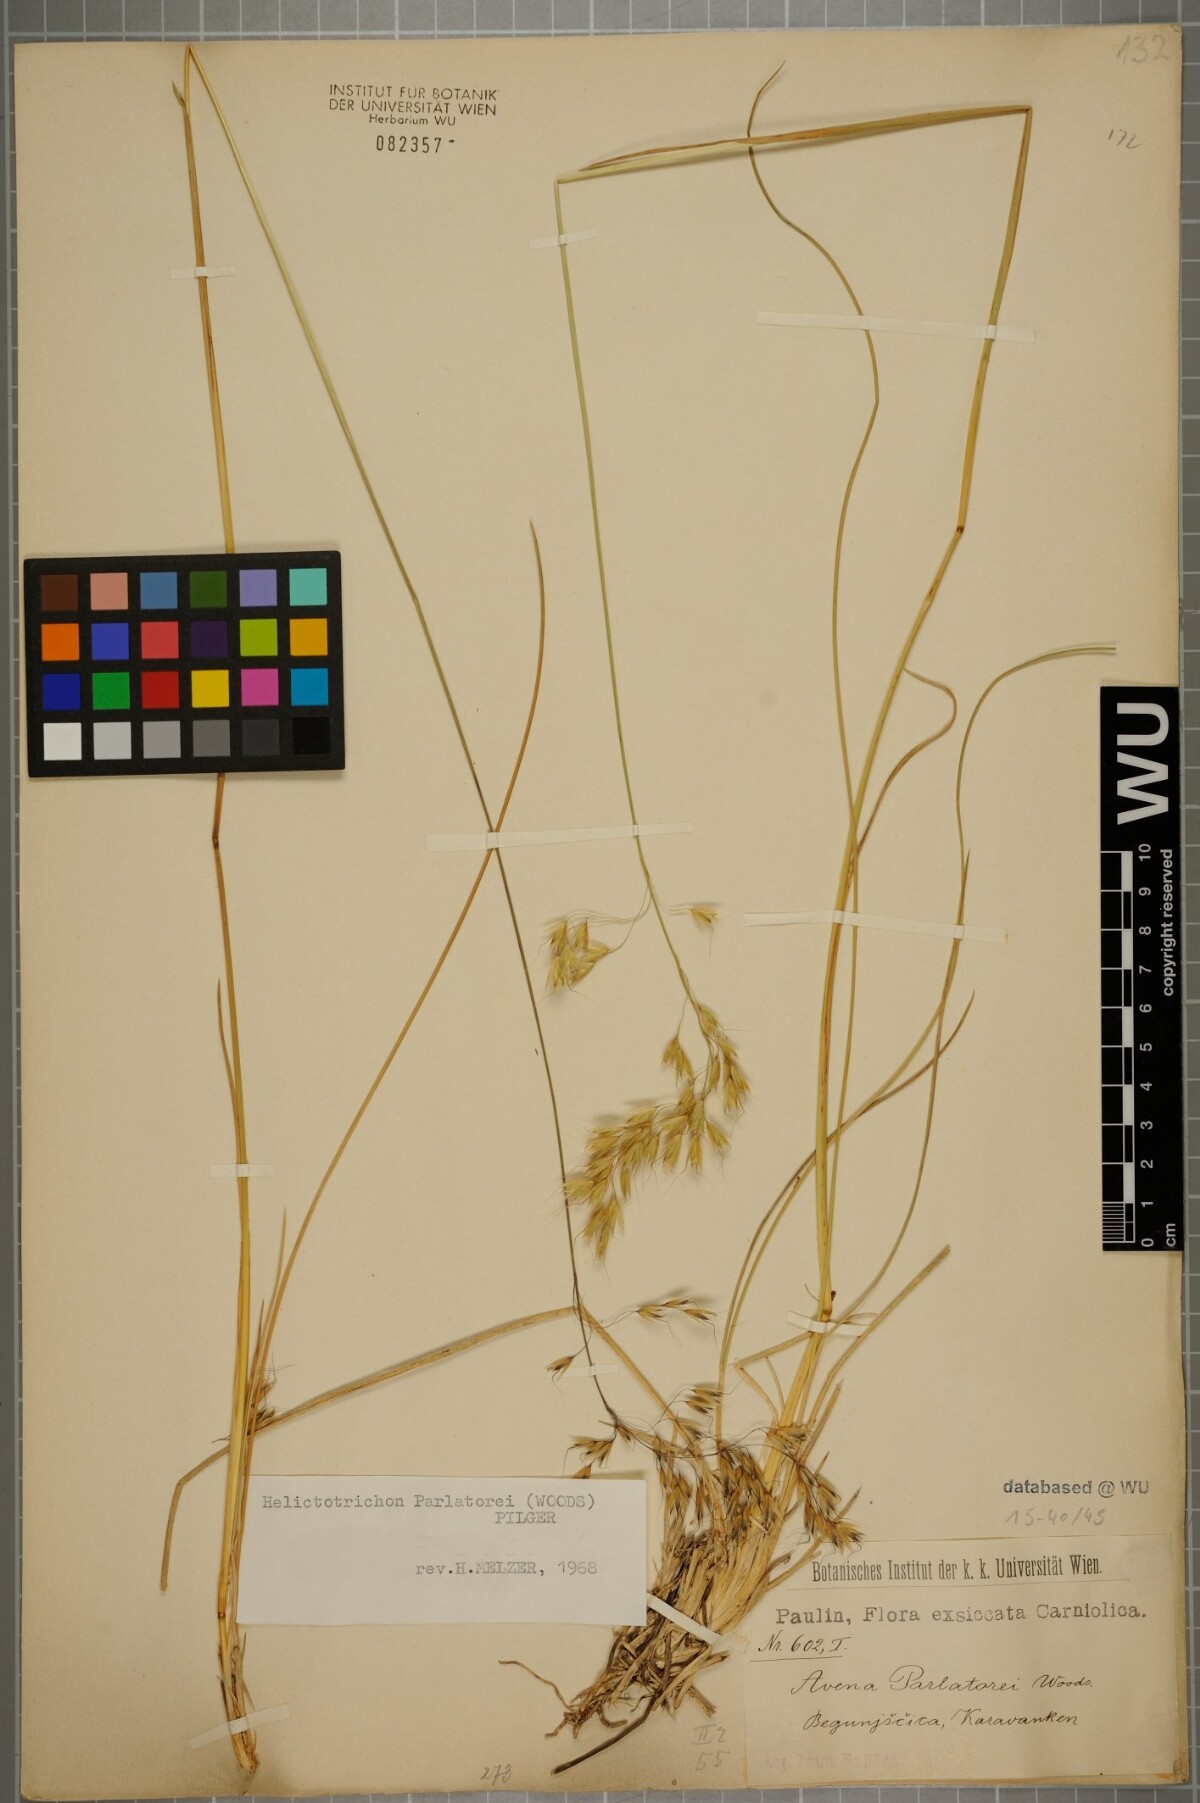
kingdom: Plantae
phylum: Tracheophyta
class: Liliopsida
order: Poales
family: Poaceae
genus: Helictotrichon
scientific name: Helictotrichon parlatorei
